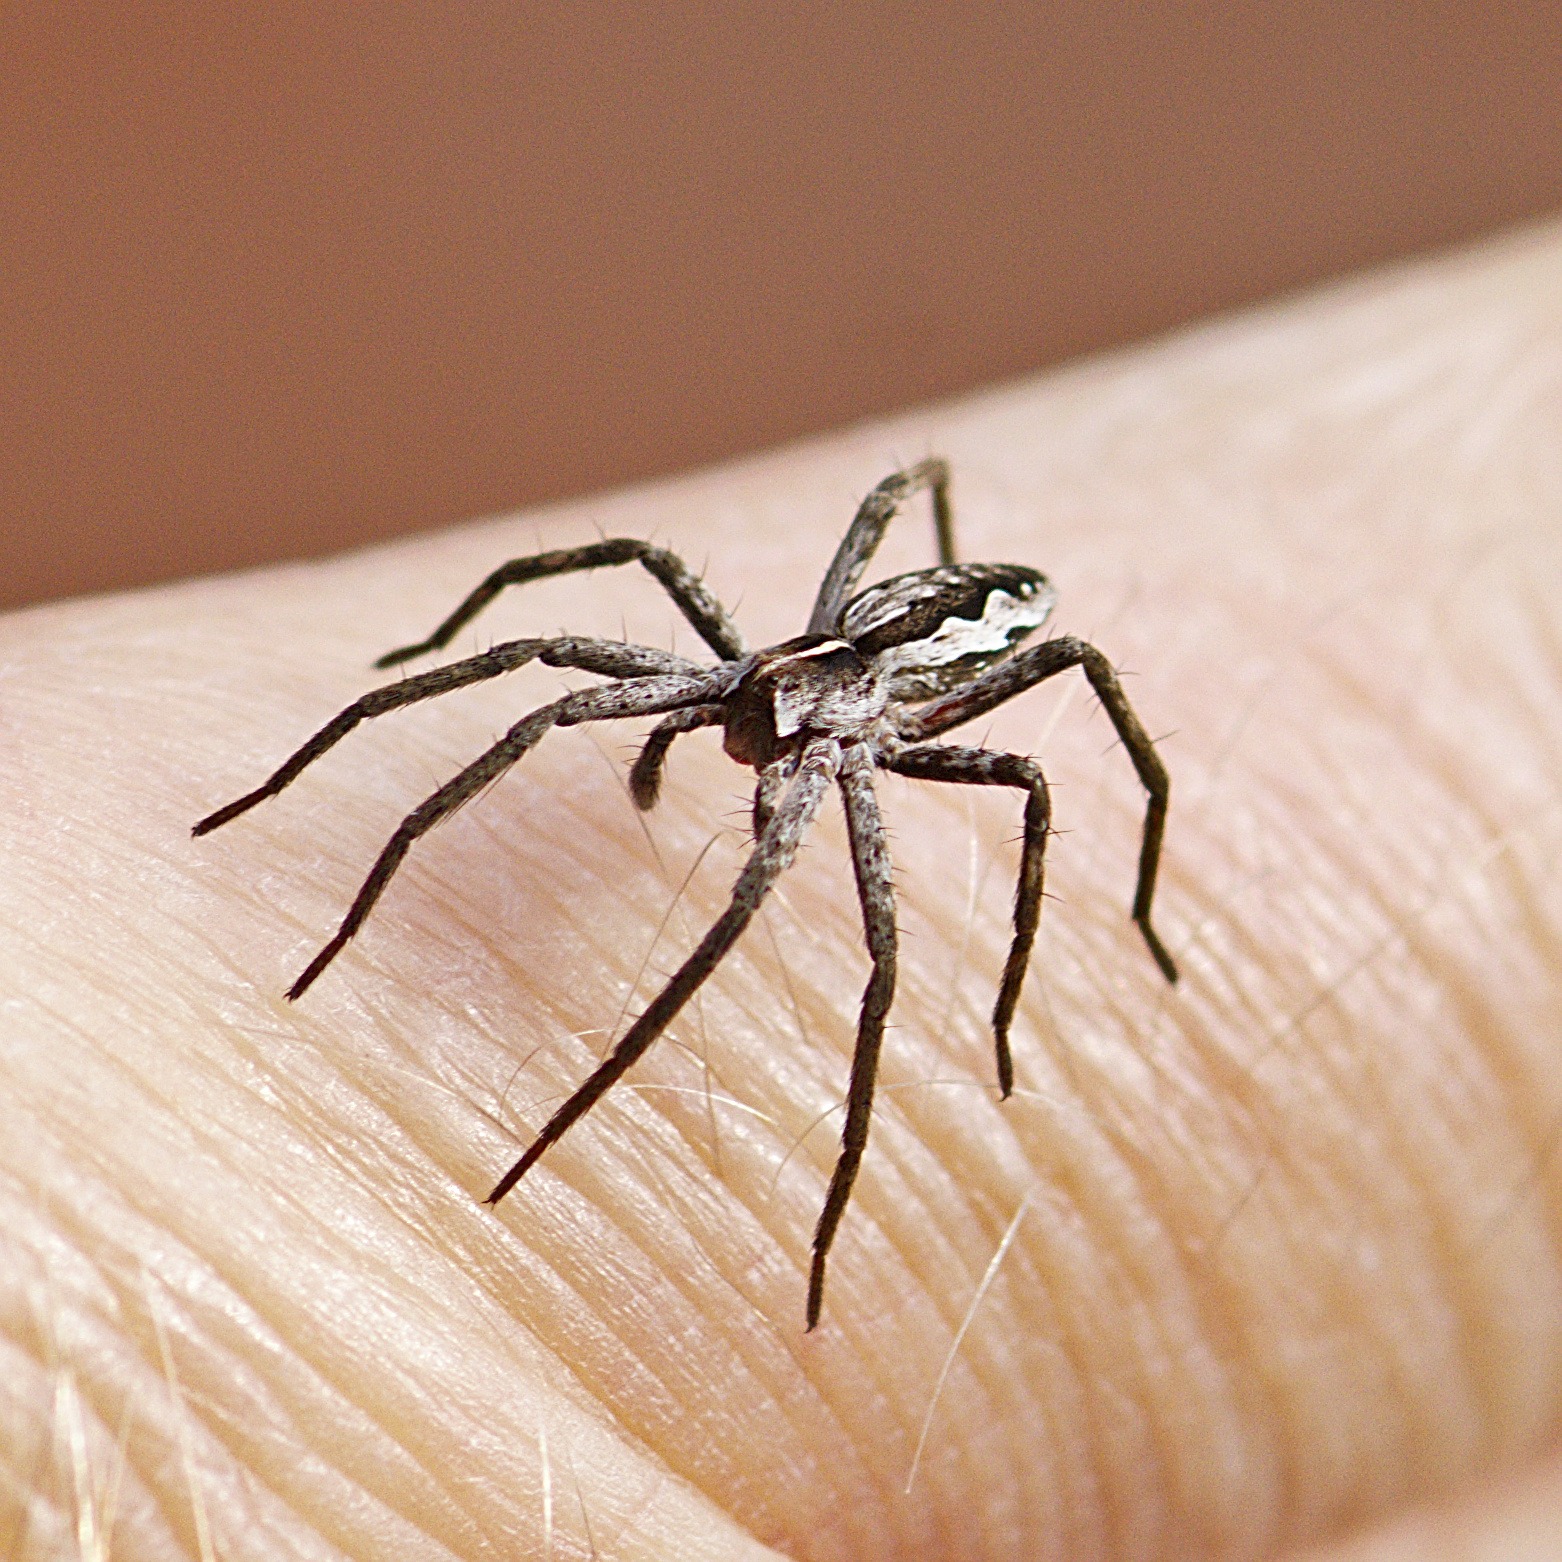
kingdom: Animalia
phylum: Arthropoda
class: Arachnida
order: Araneae
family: Pisauridae
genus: Pisaura
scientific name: Pisaura mirabilis
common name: Almindelig rovedderkop
